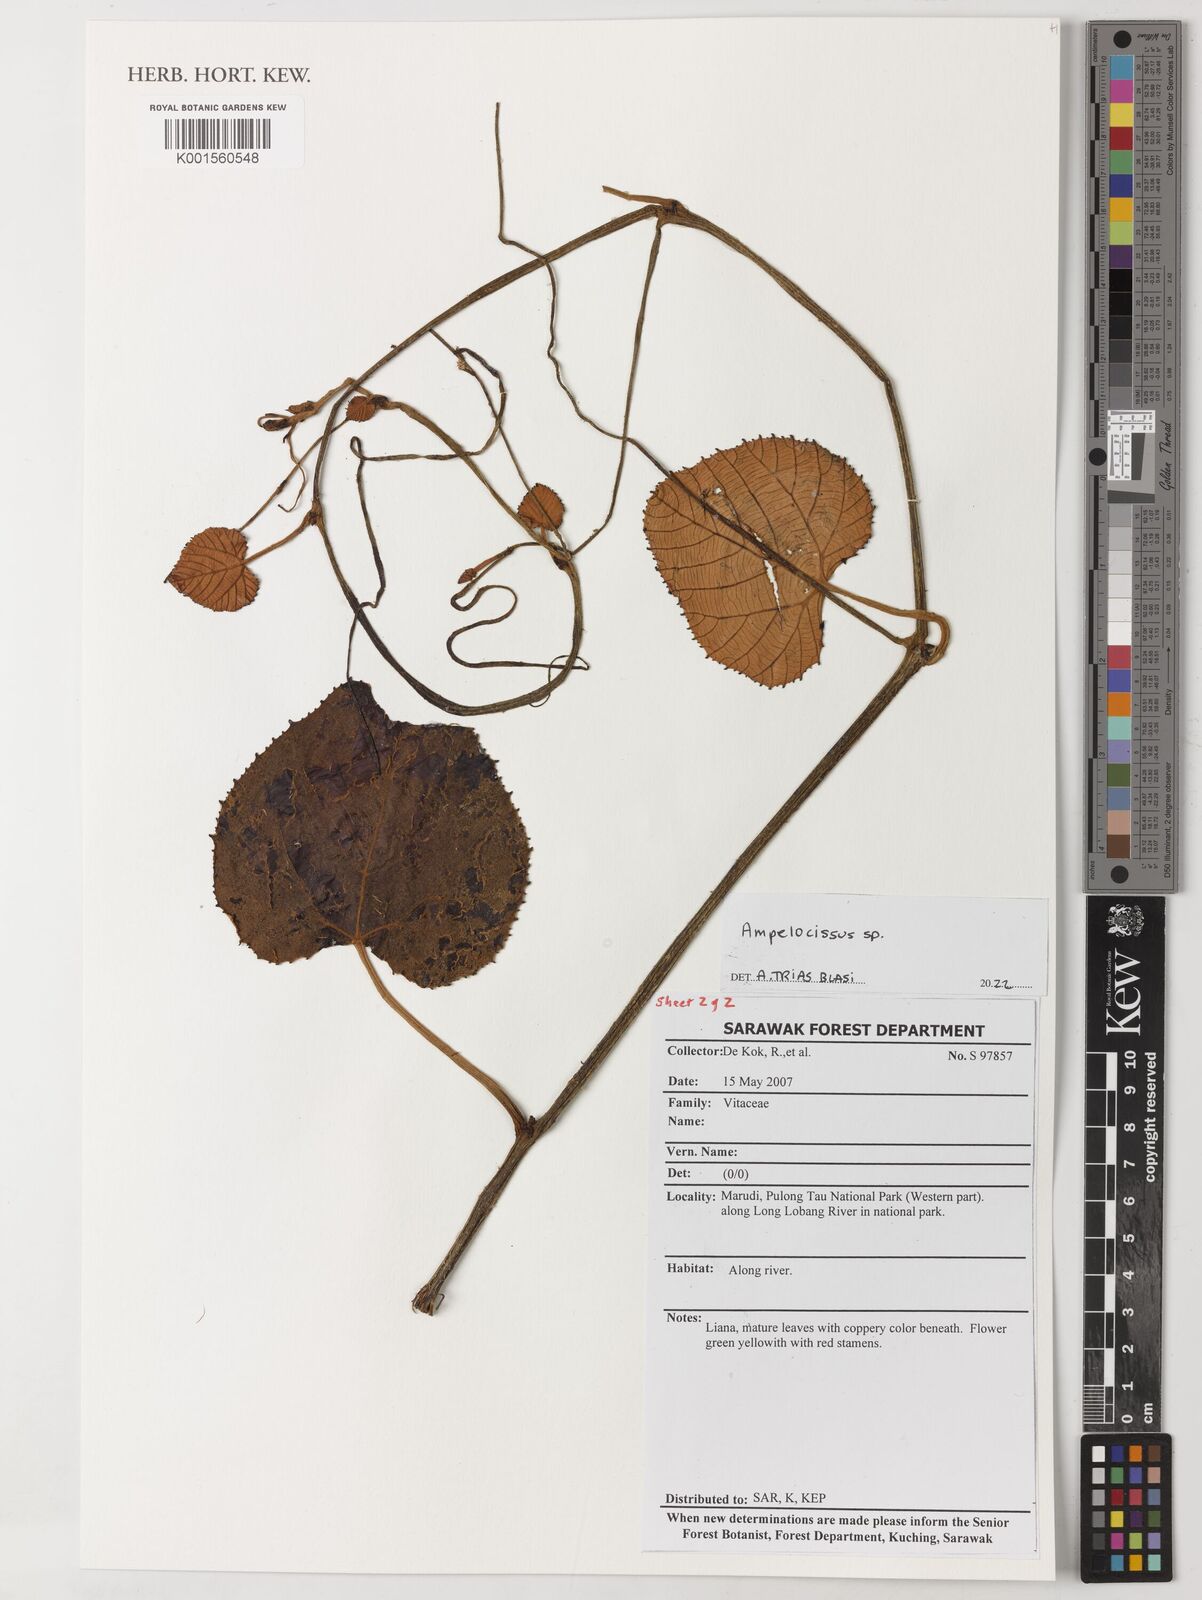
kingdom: Plantae
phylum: Tracheophyta
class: Magnoliopsida
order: Vitales
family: Vitaceae
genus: Ampelocissus
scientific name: Ampelocissus
